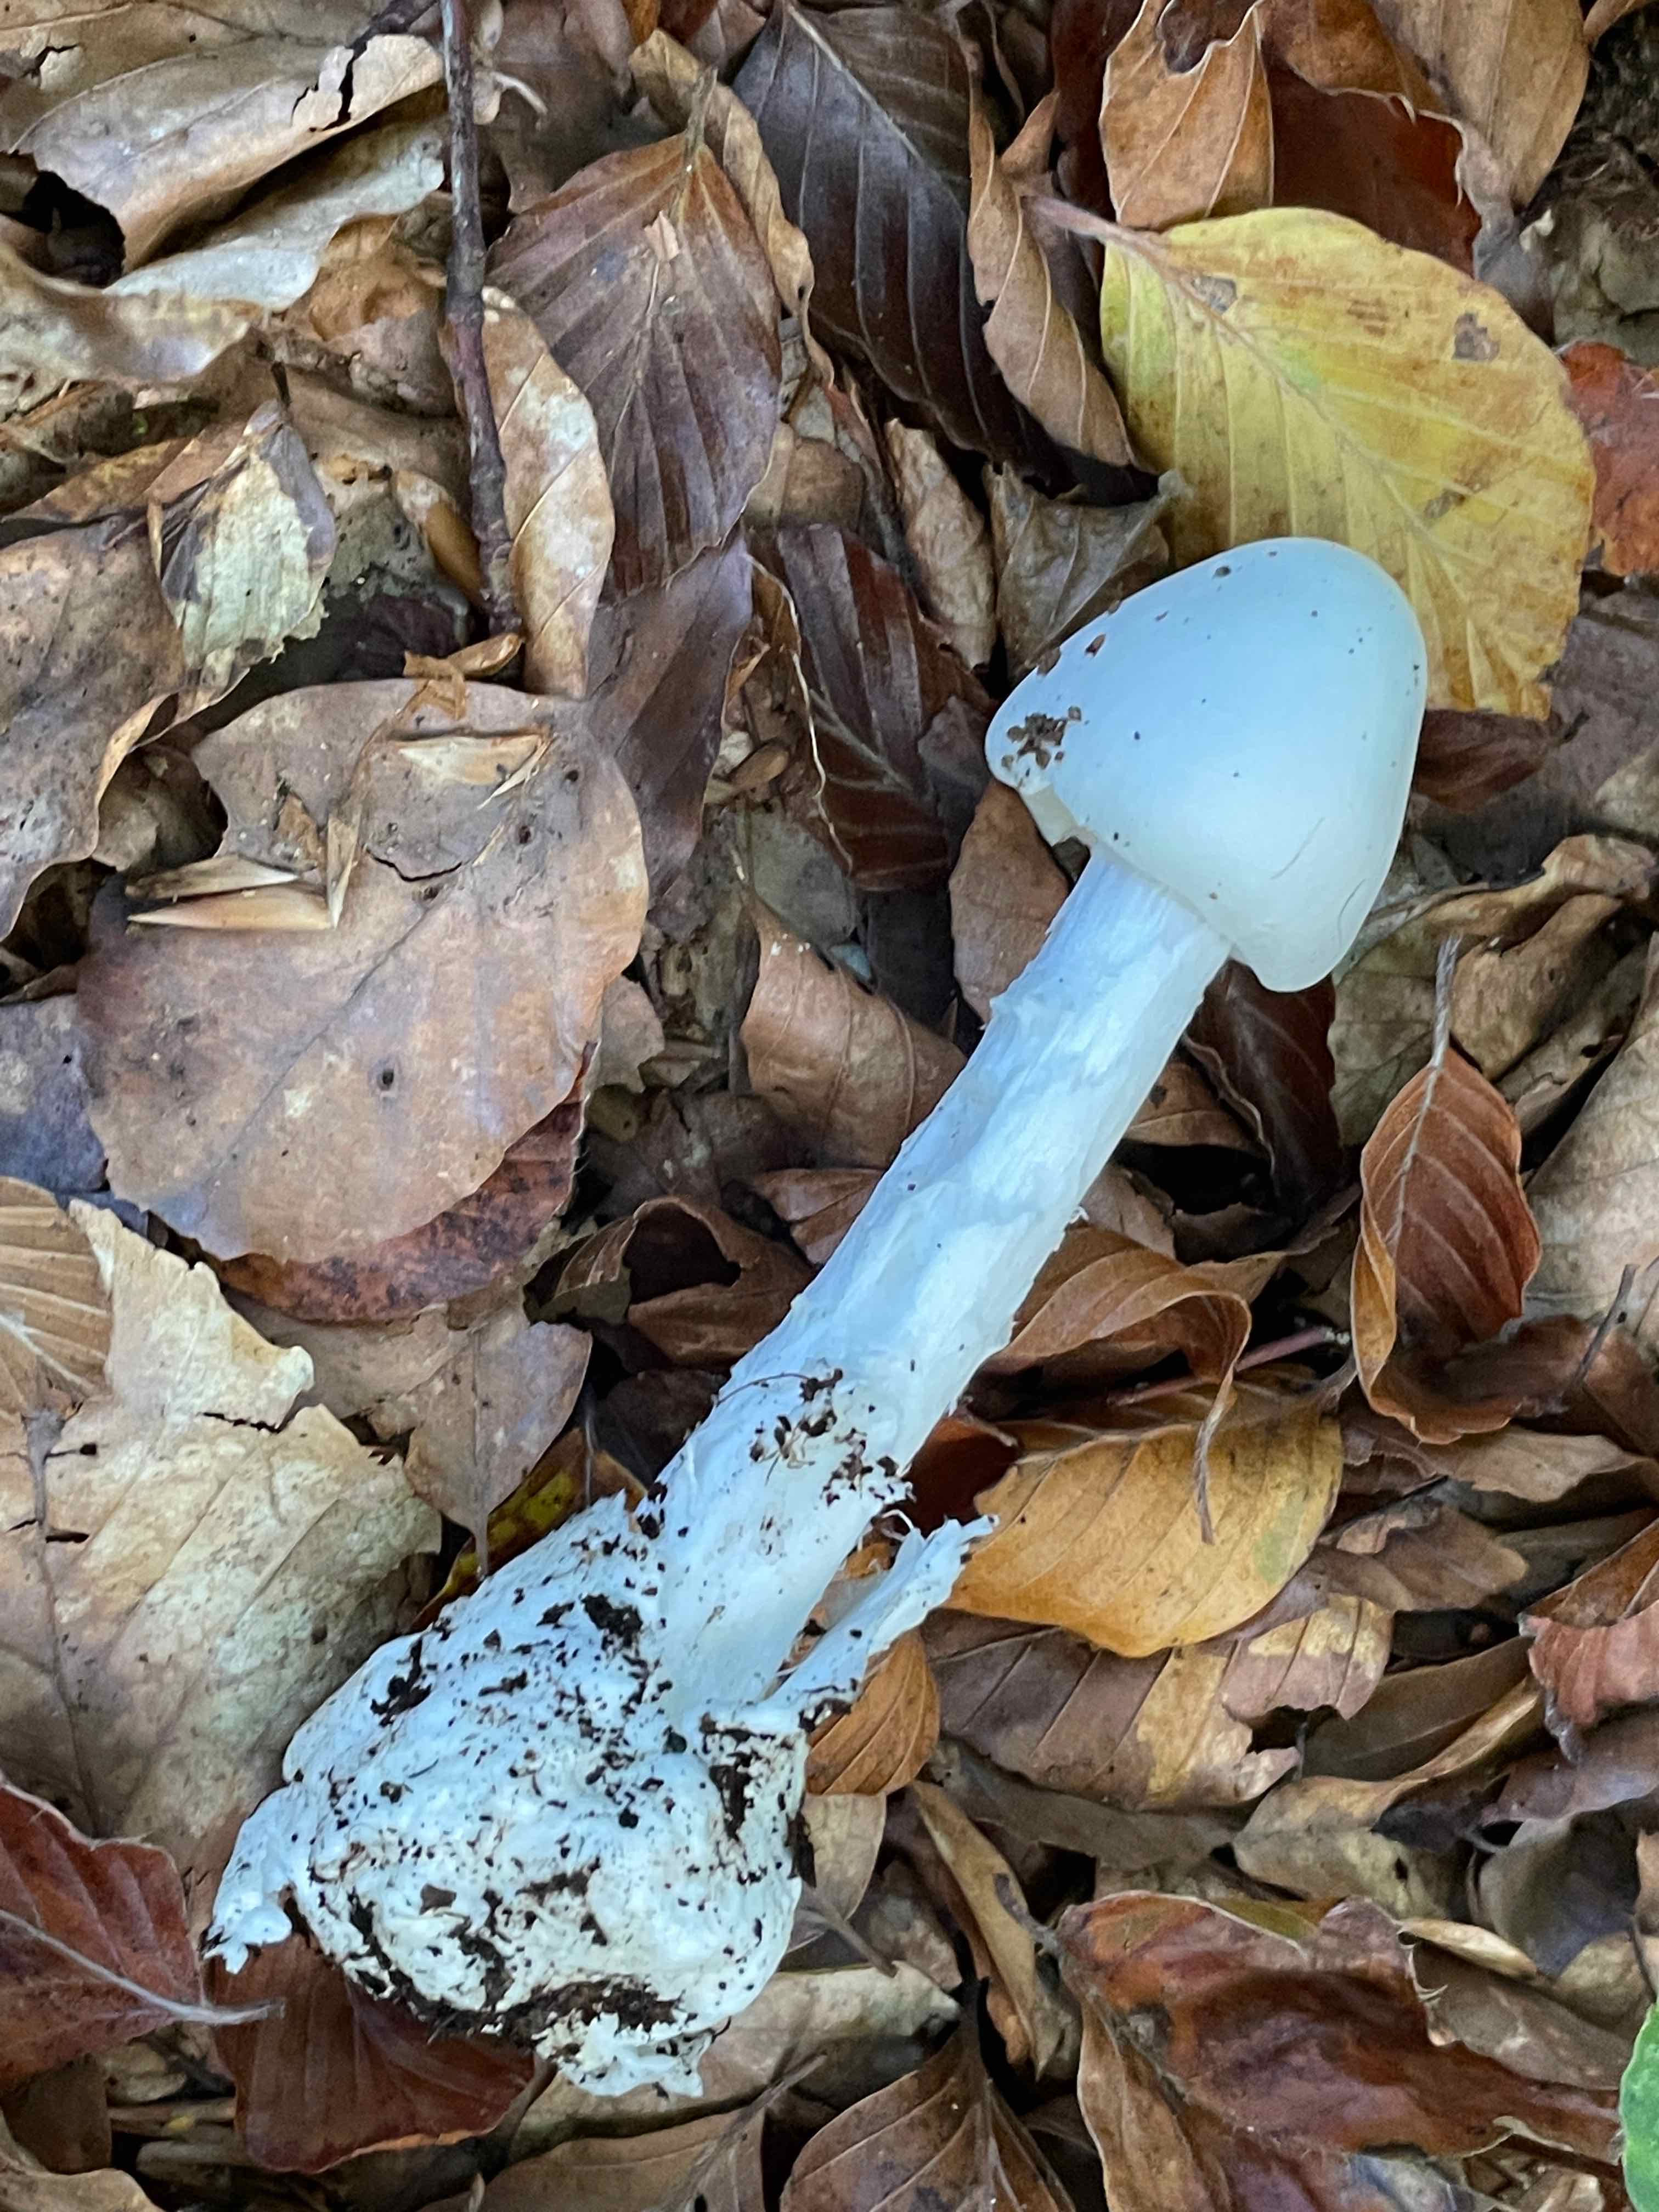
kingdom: Fungi
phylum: Basidiomycota
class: Agaricomycetes
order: Agaricales
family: Amanitaceae
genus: Amanita
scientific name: Amanita virosa
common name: snehvid fluesvamp
